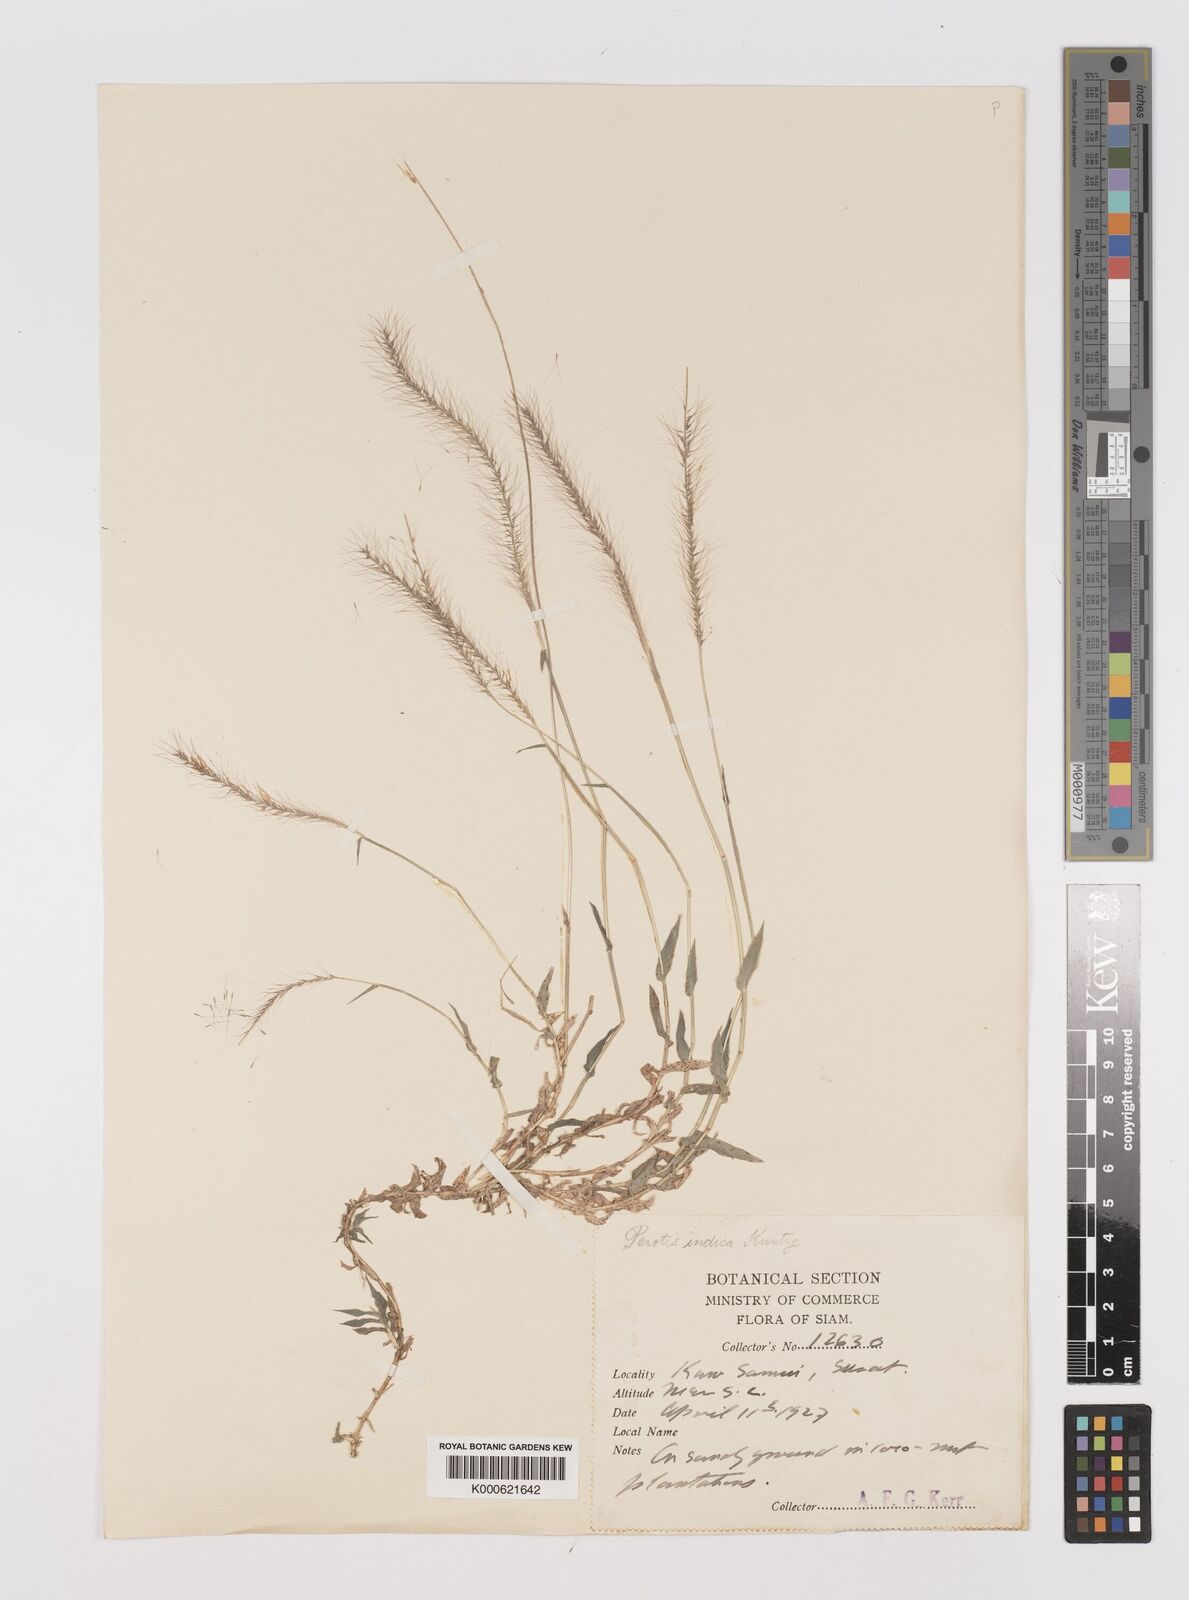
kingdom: Plantae
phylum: Tracheophyta
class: Liliopsida
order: Poales
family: Poaceae
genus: Perotis
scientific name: Perotis indica
